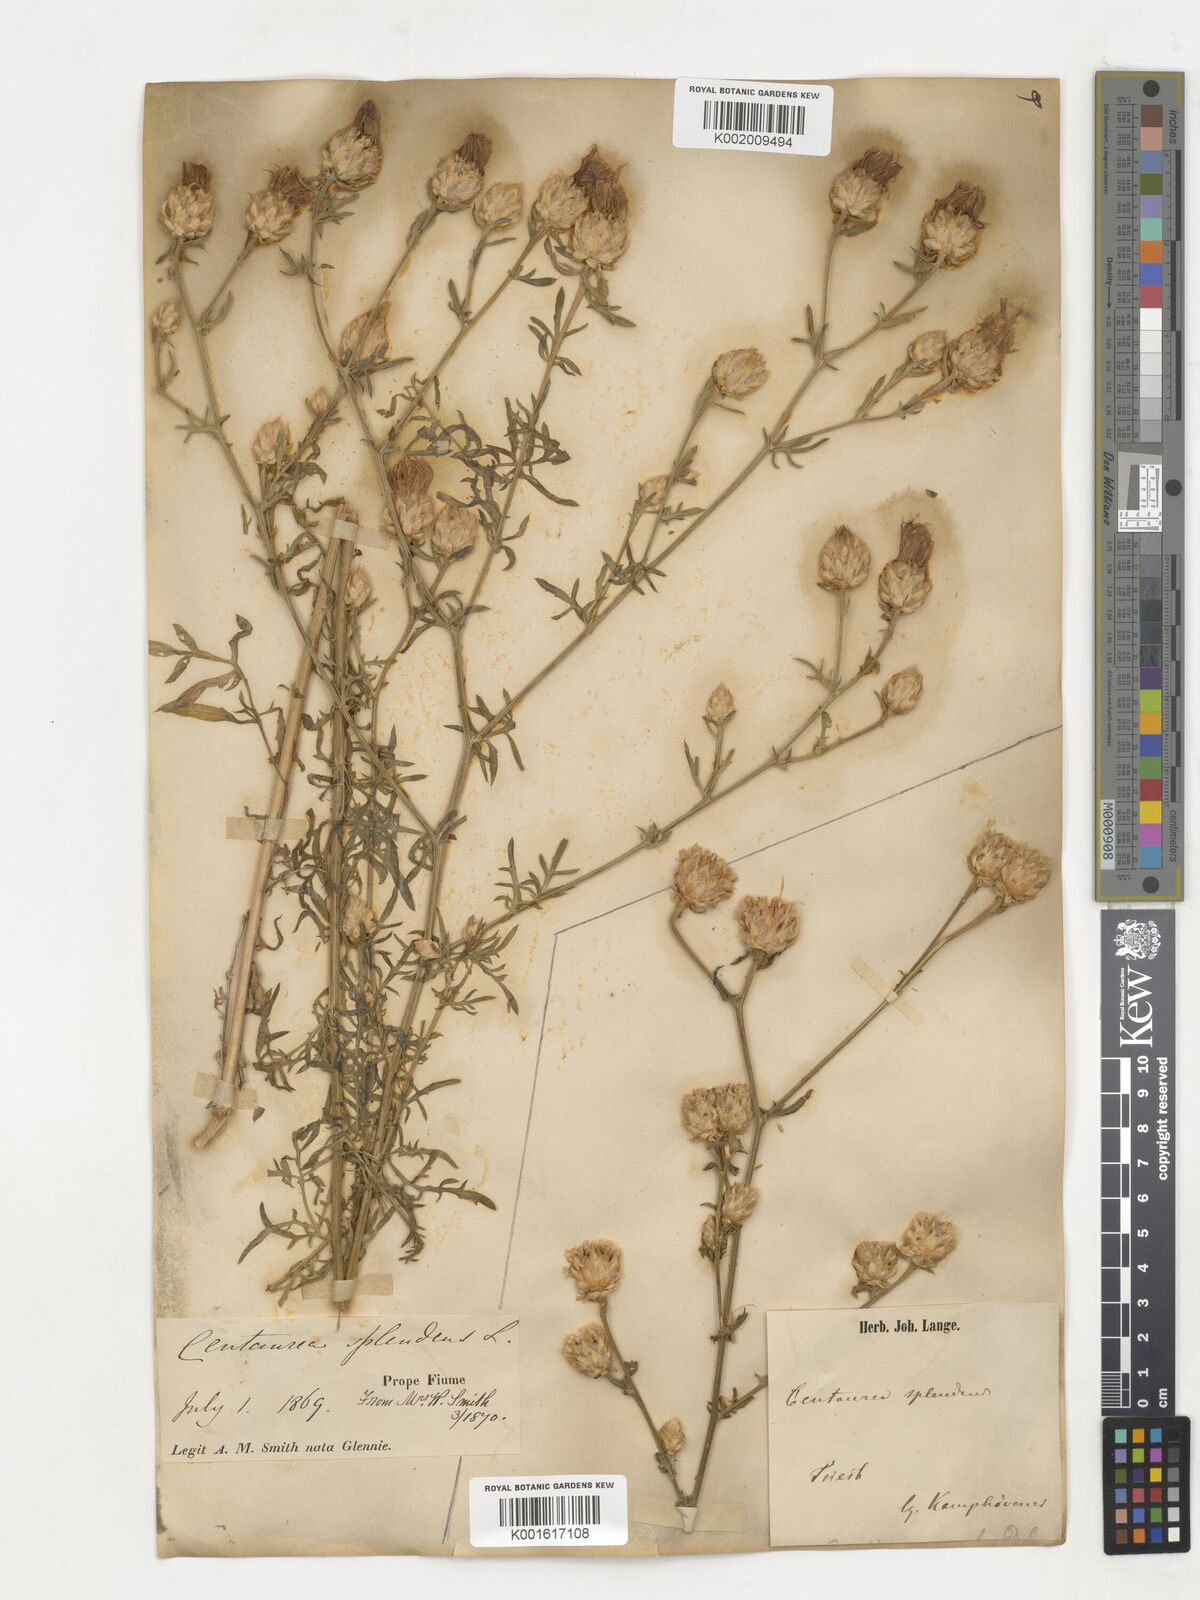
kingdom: Plantae
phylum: Tracheophyta
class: Magnoliopsida
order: Asterales
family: Asteraceae
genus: Centaurea
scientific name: Centaurea splendens
